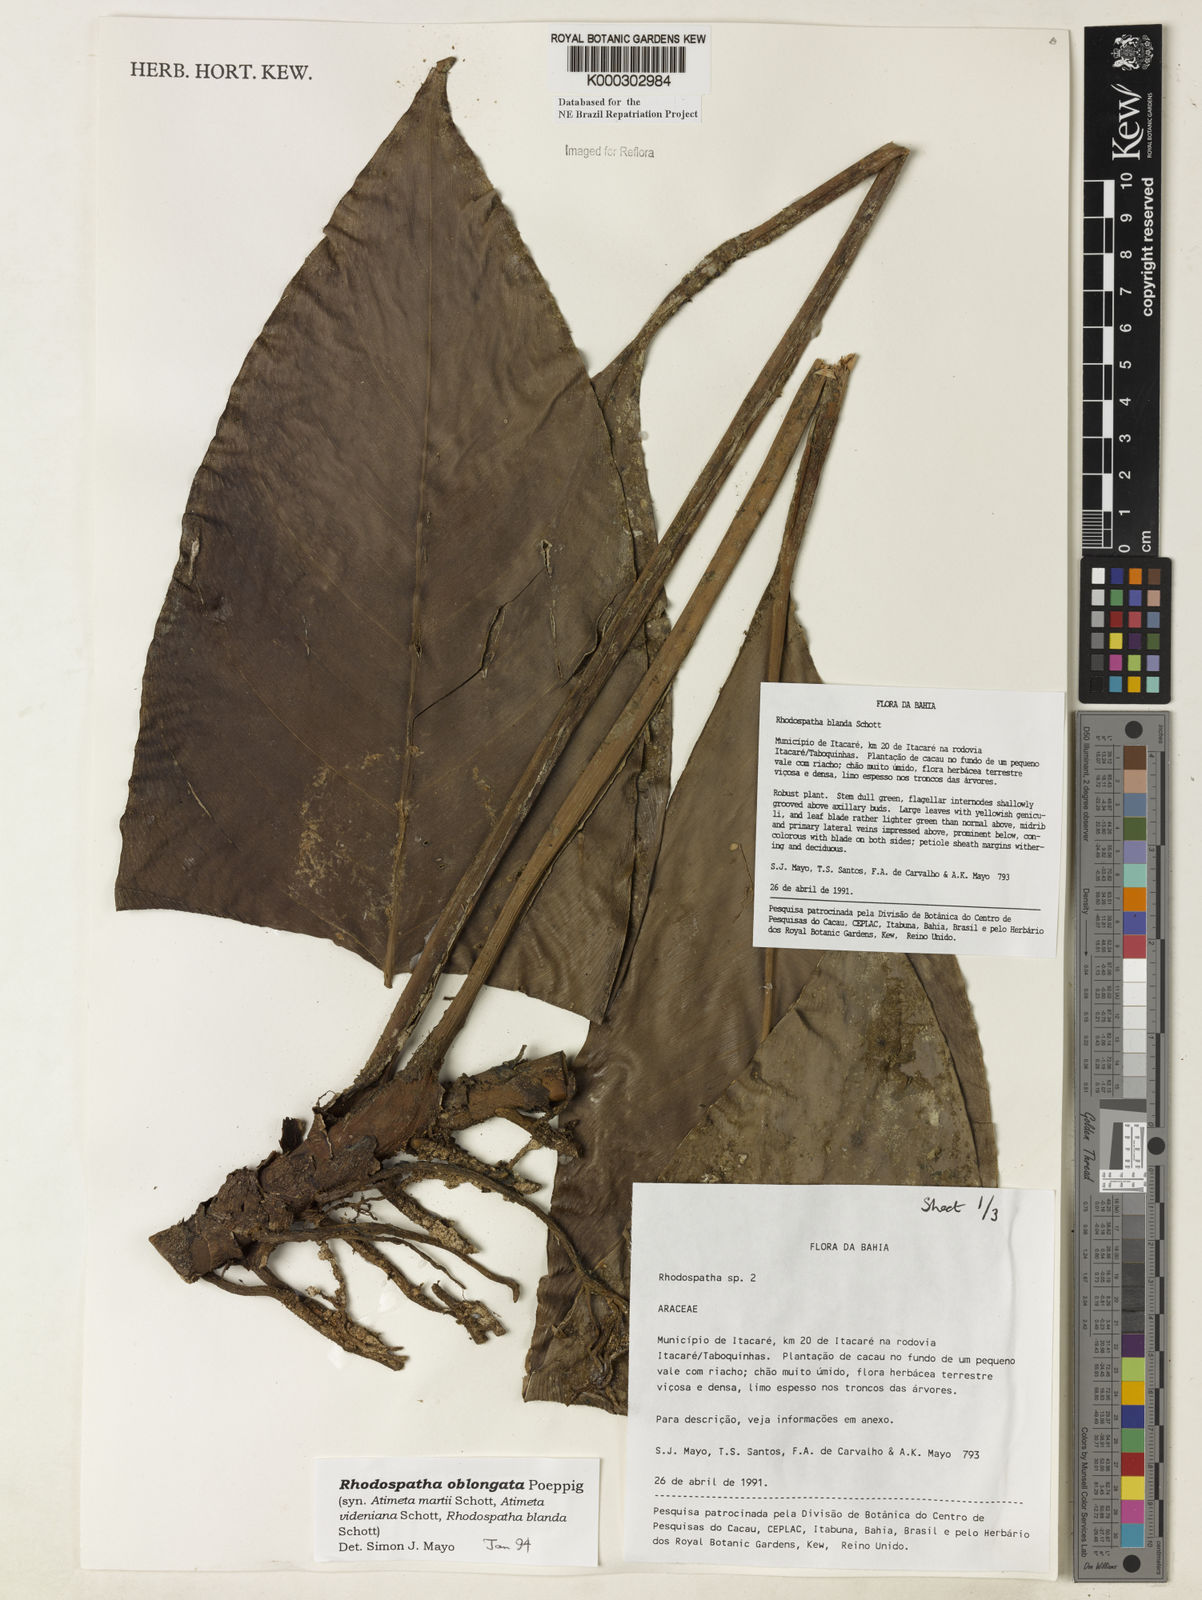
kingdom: Plantae
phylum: Tracheophyta
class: Liliopsida
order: Alismatales
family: Araceae
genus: Rhodospatha
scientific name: Rhodospatha oblongata
